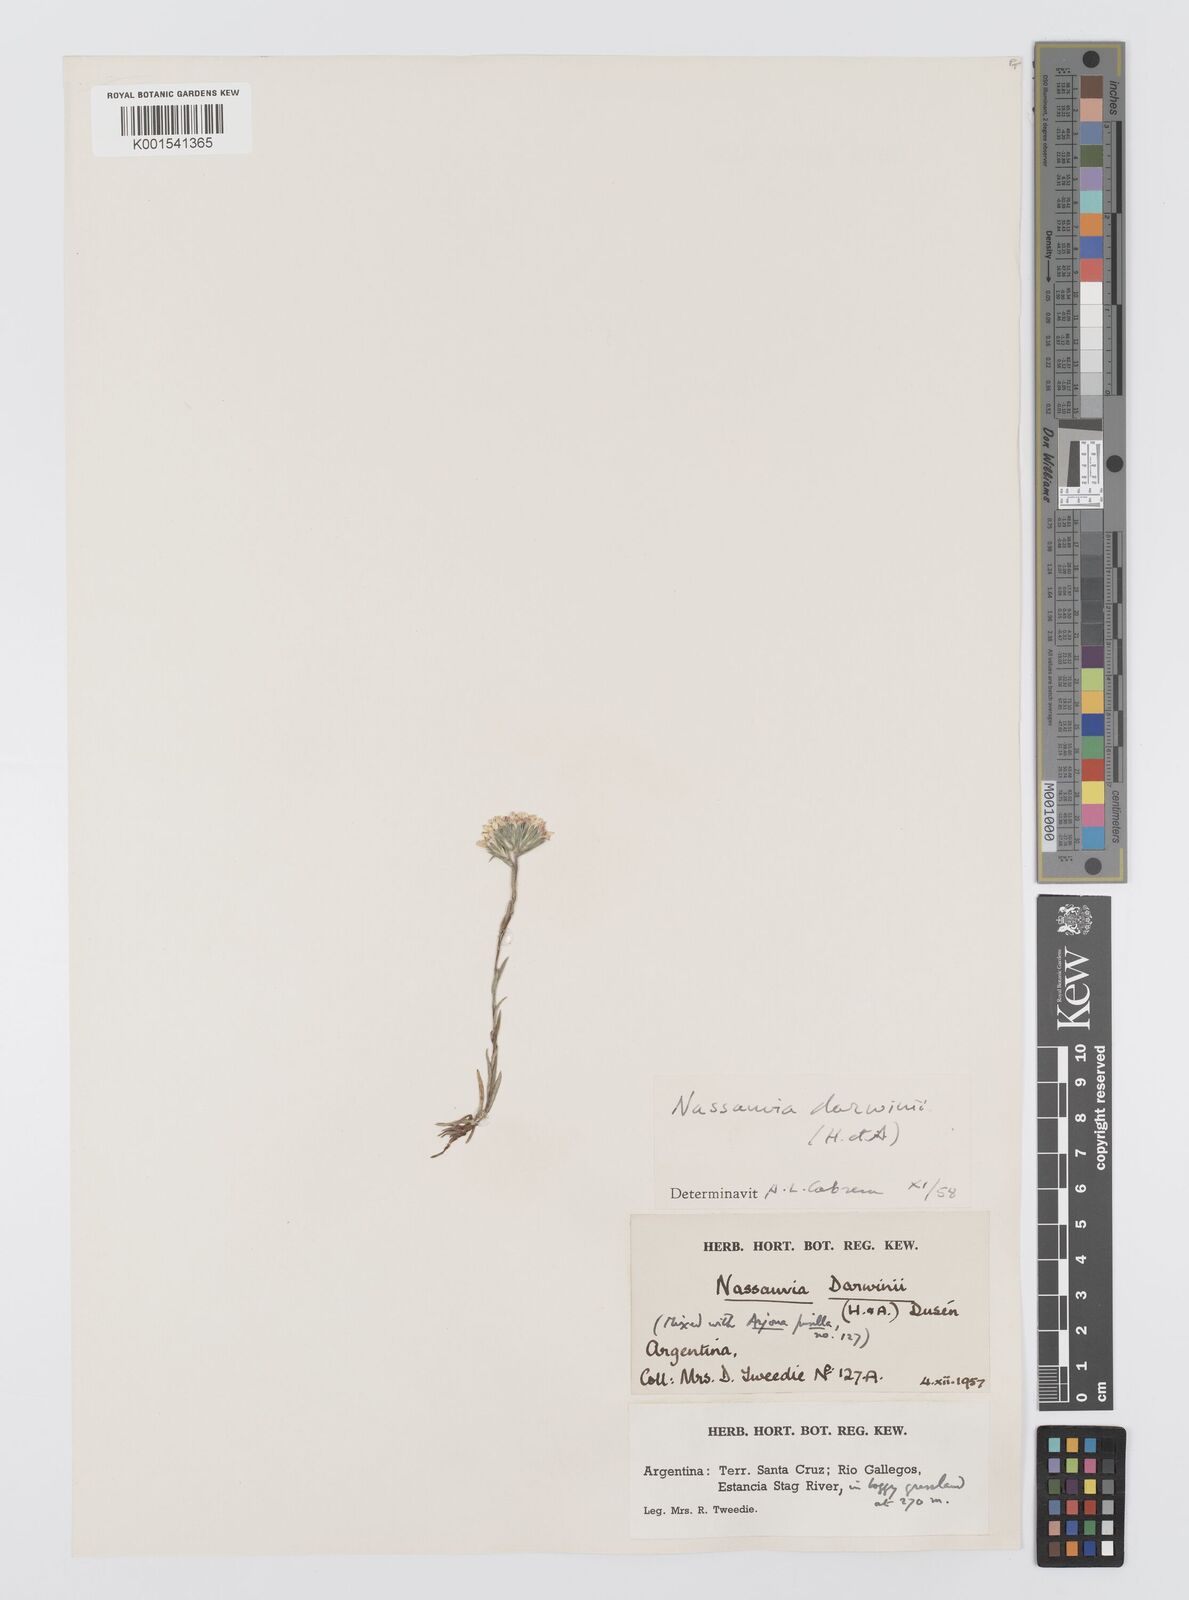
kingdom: Plantae
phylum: Tracheophyta
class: Magnoliopsida
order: Asterales
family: Asteraceae
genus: Nassauvia
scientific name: Nassauvia darwinii
